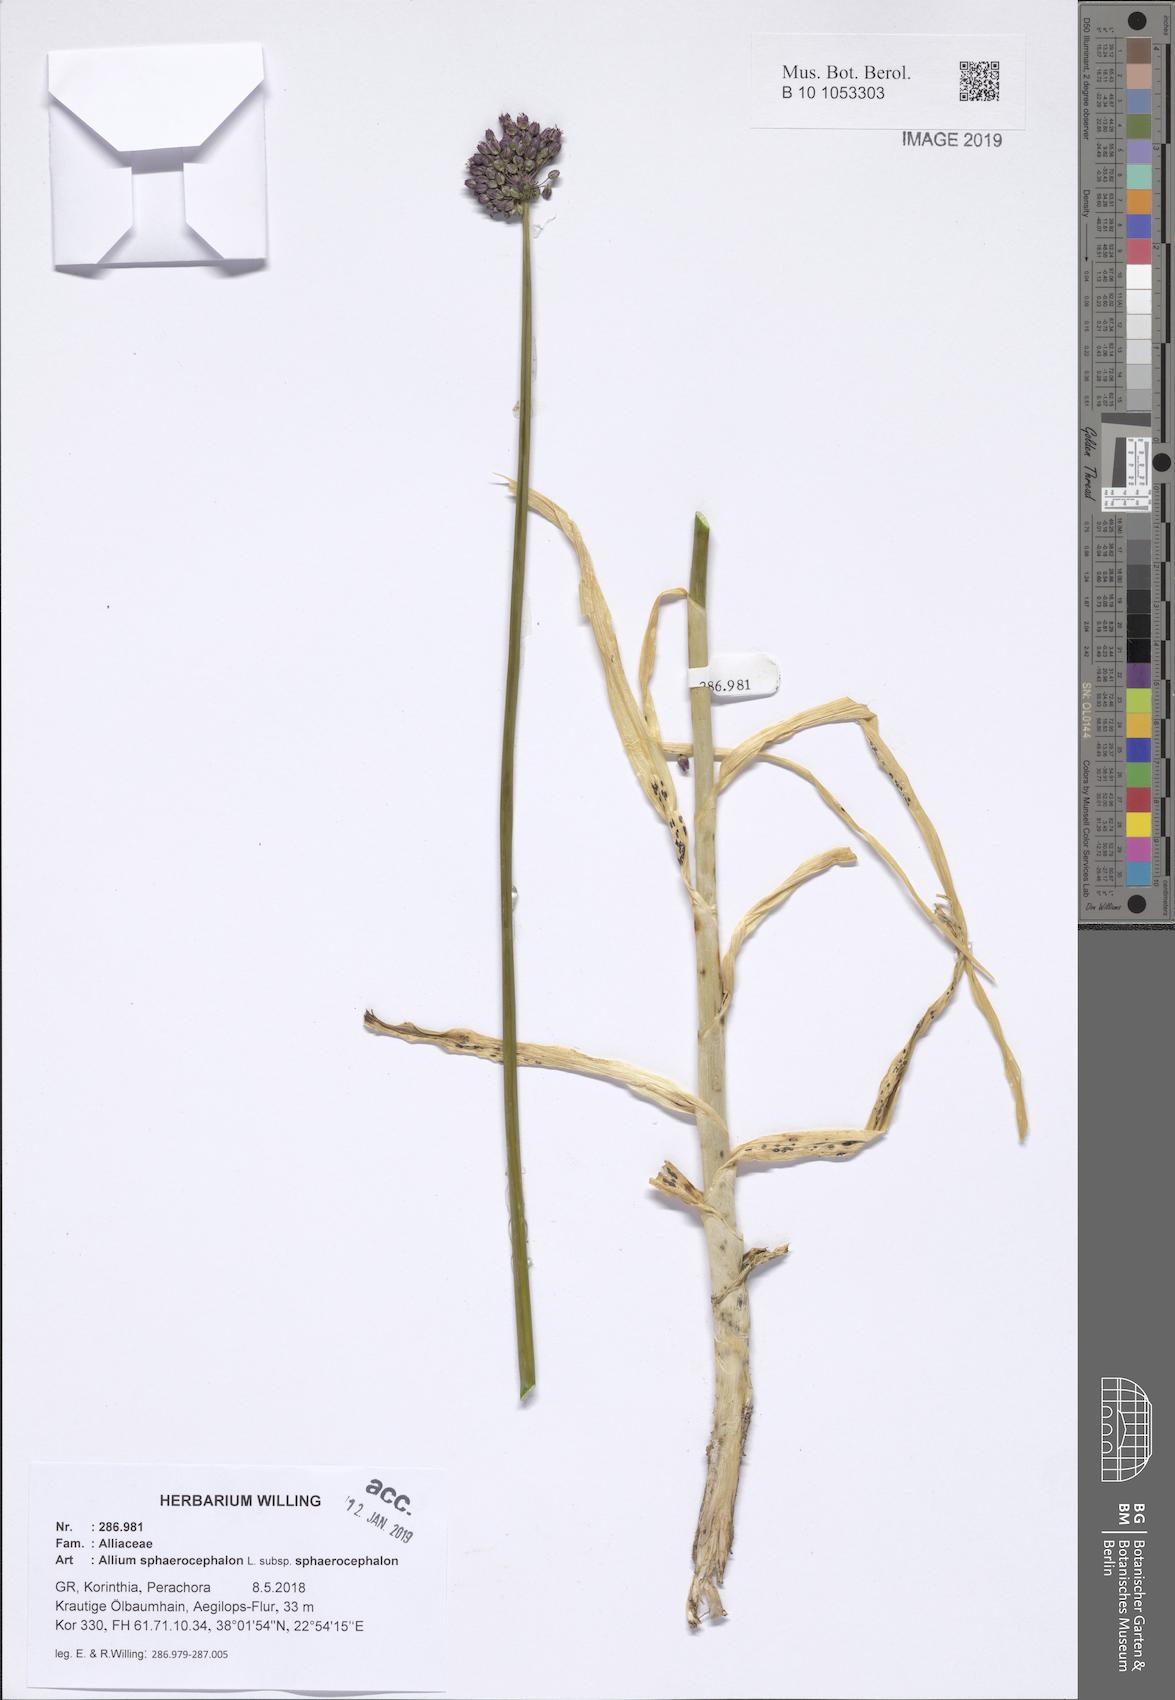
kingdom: Plantae
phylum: Tracheophyta
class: Liliopsida
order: Asparagales
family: Amaryllidaceae
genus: Allium
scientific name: Allium sphaerocephalon
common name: Round-headed leek
